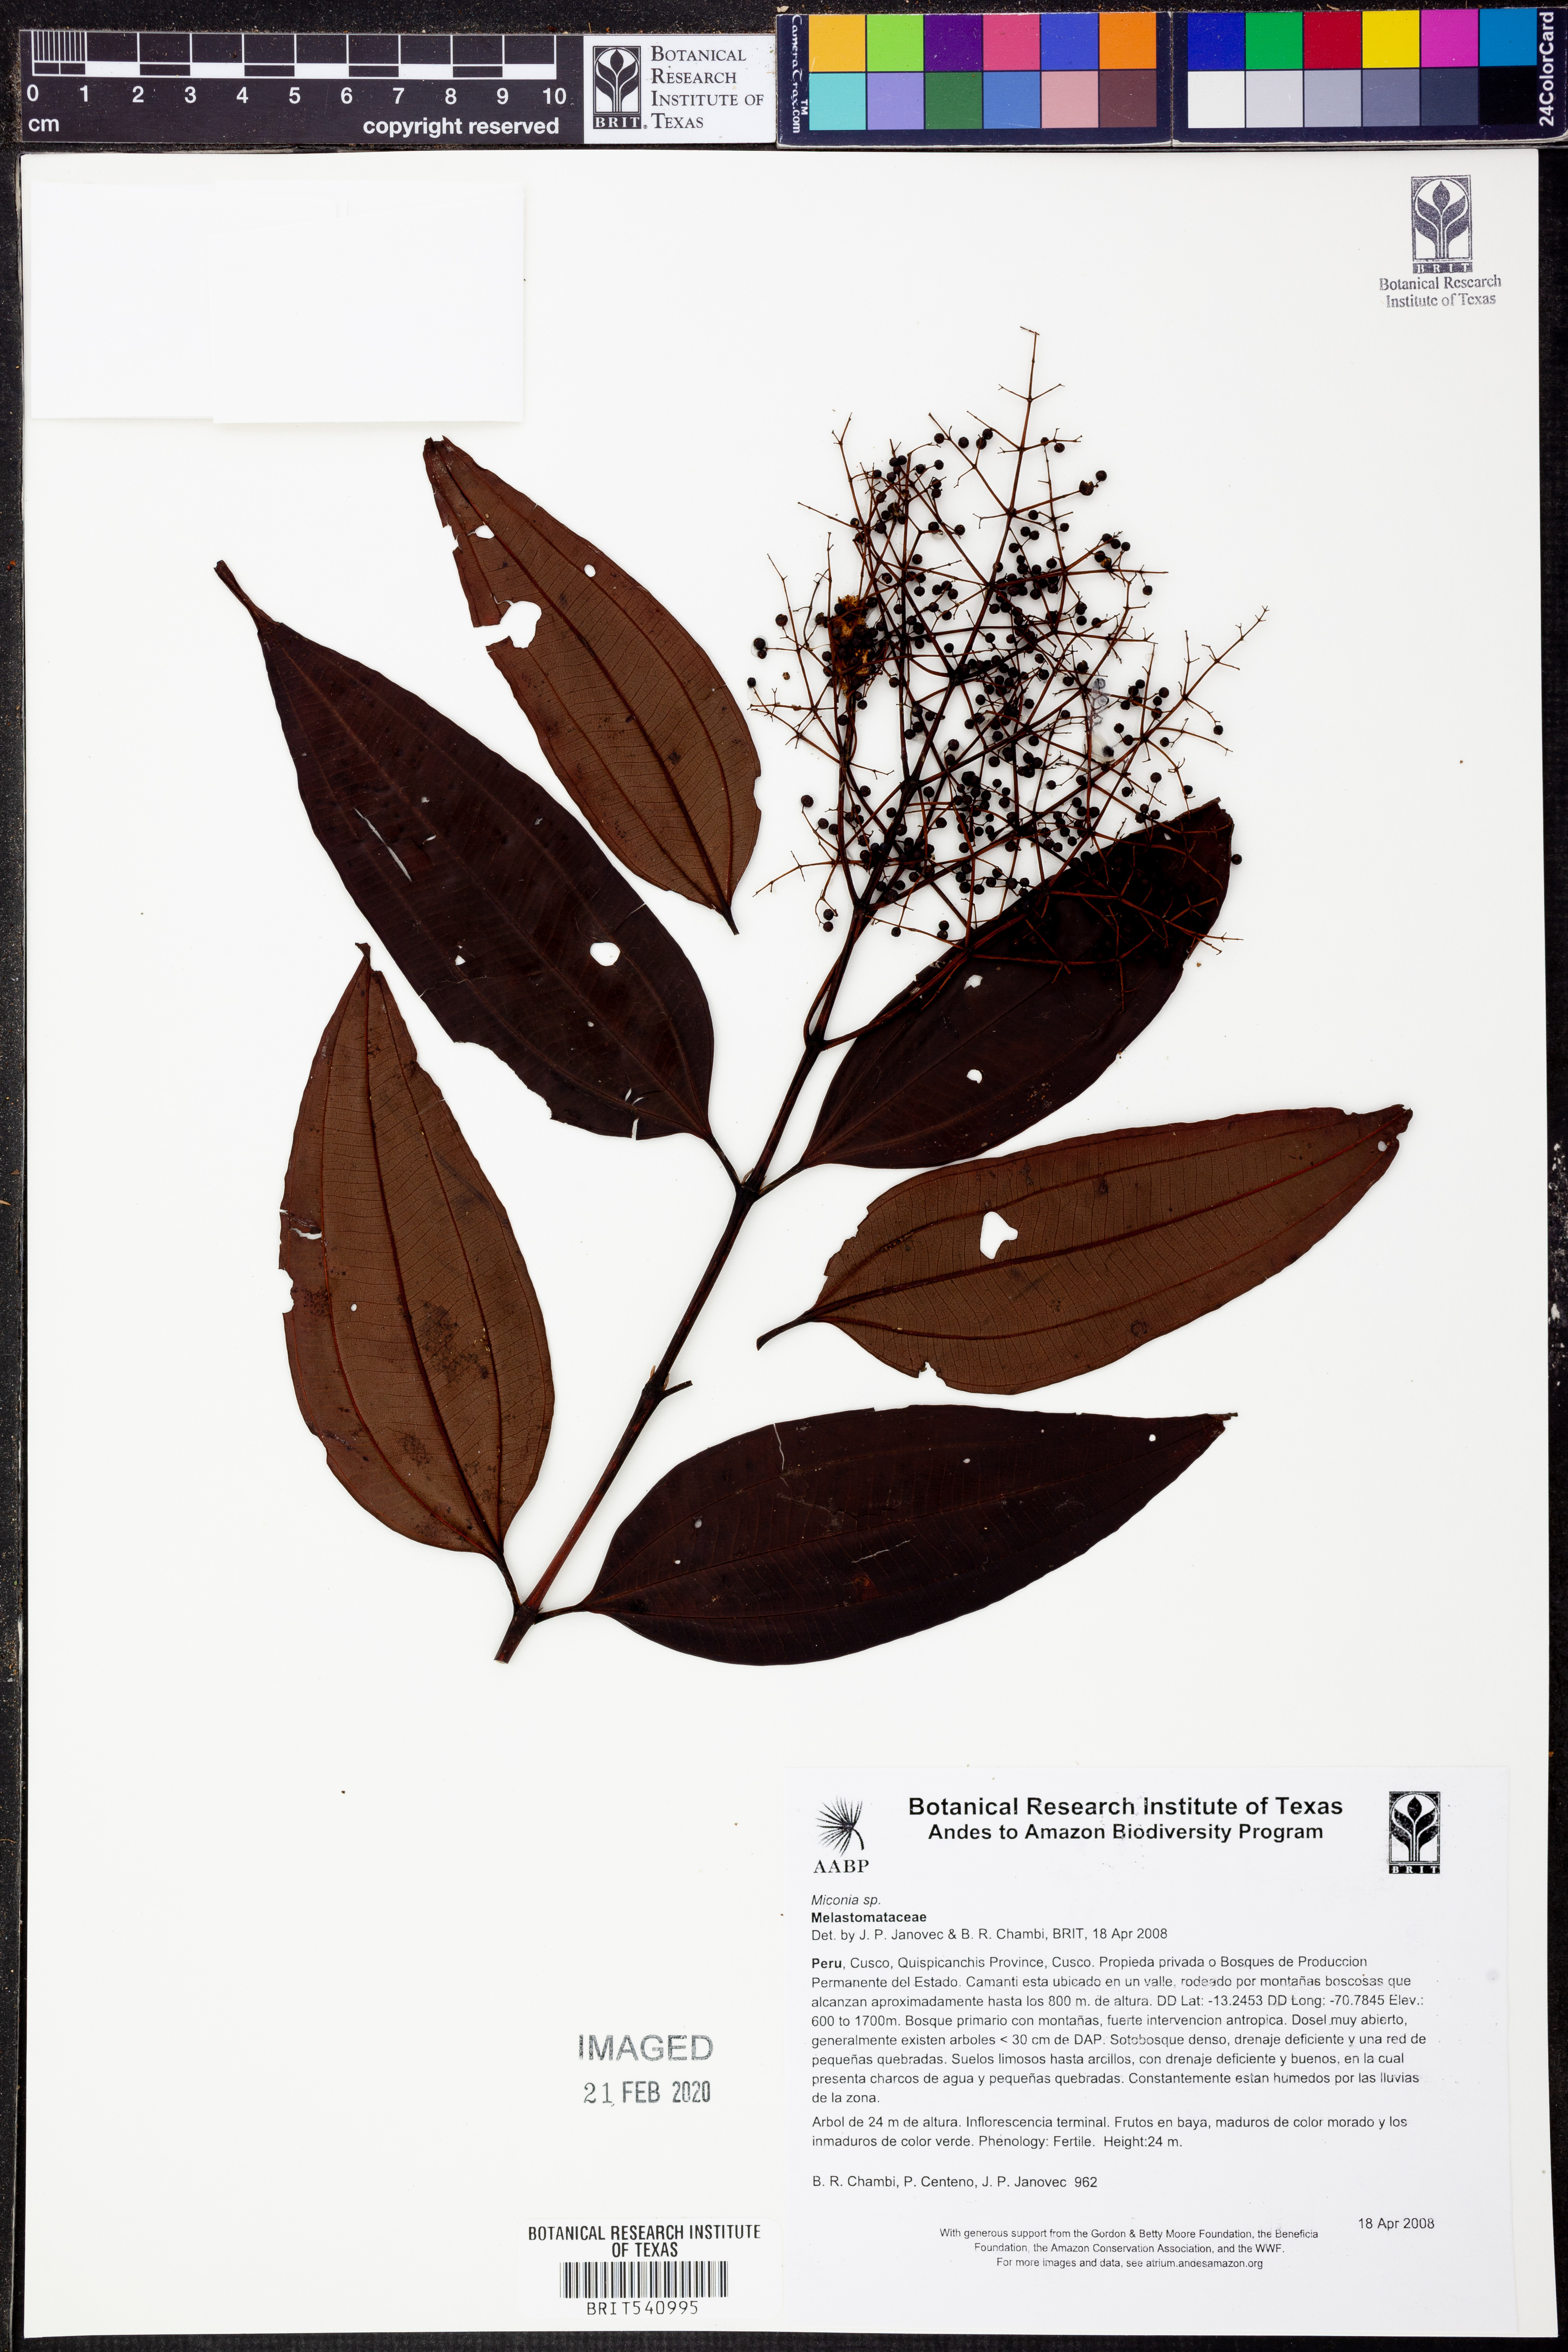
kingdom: Plantae
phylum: Tracheophyta
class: Magnoliopsida
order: Myrtales
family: Melastomataceae
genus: Miconia
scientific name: Miconia
